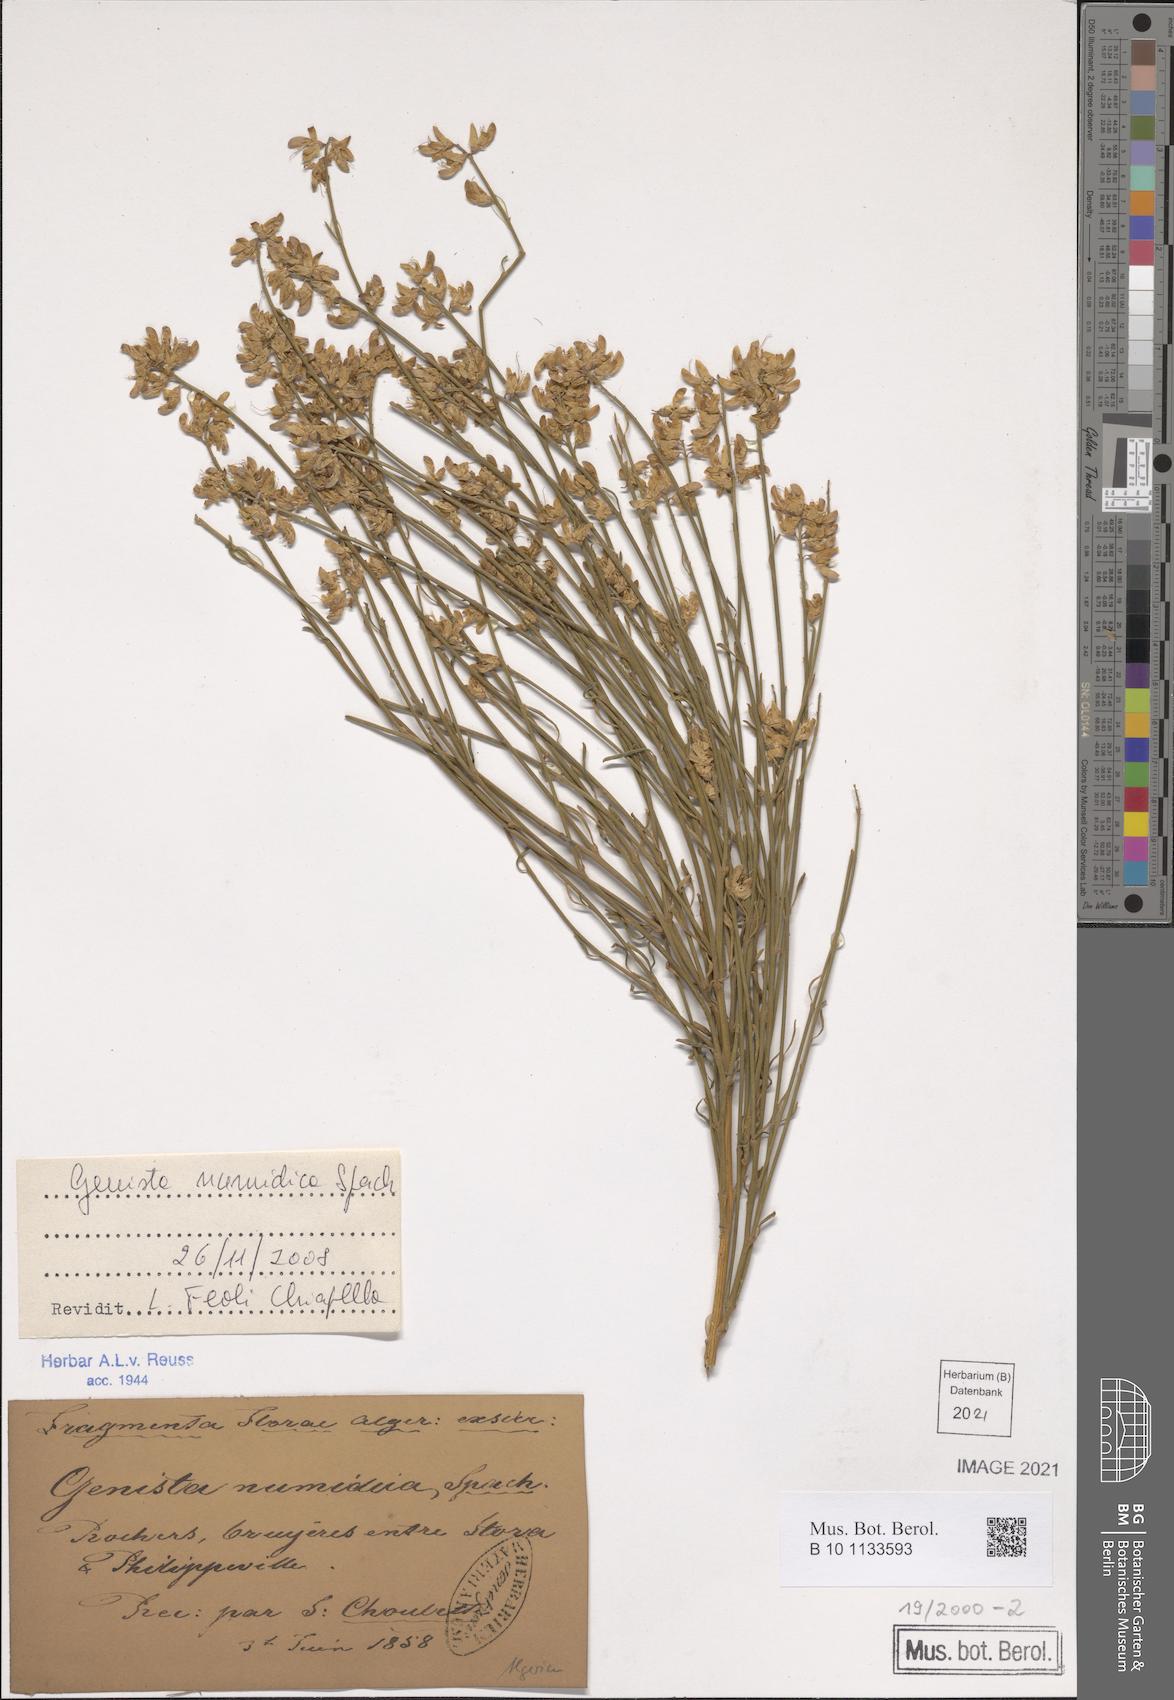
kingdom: Plantae
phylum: Tracheophyta
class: Magnoliopsida
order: Fabales
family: Fabaceae
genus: Genista
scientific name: Genista numidica
